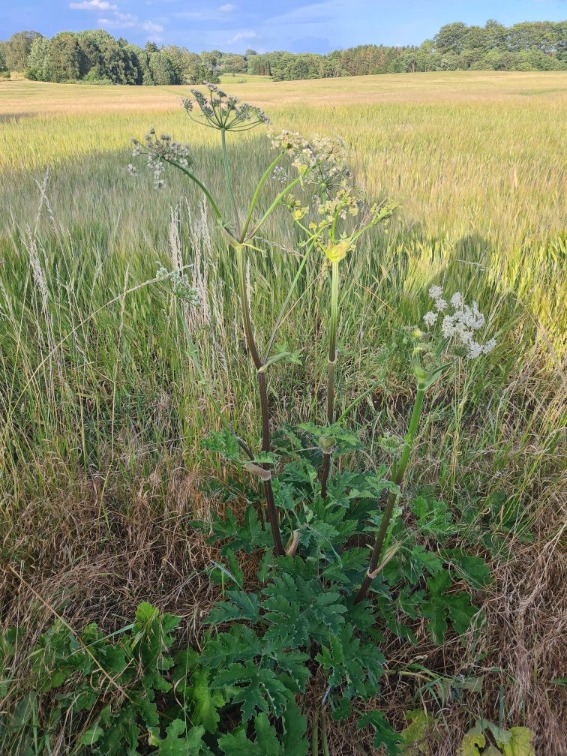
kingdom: Plantae
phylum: Tracheophyta
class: Magnoliopsida
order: Apiales
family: Apiaceae
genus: Heracleum
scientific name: Heracleum sphondylium
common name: Almindelig bjørneklo
